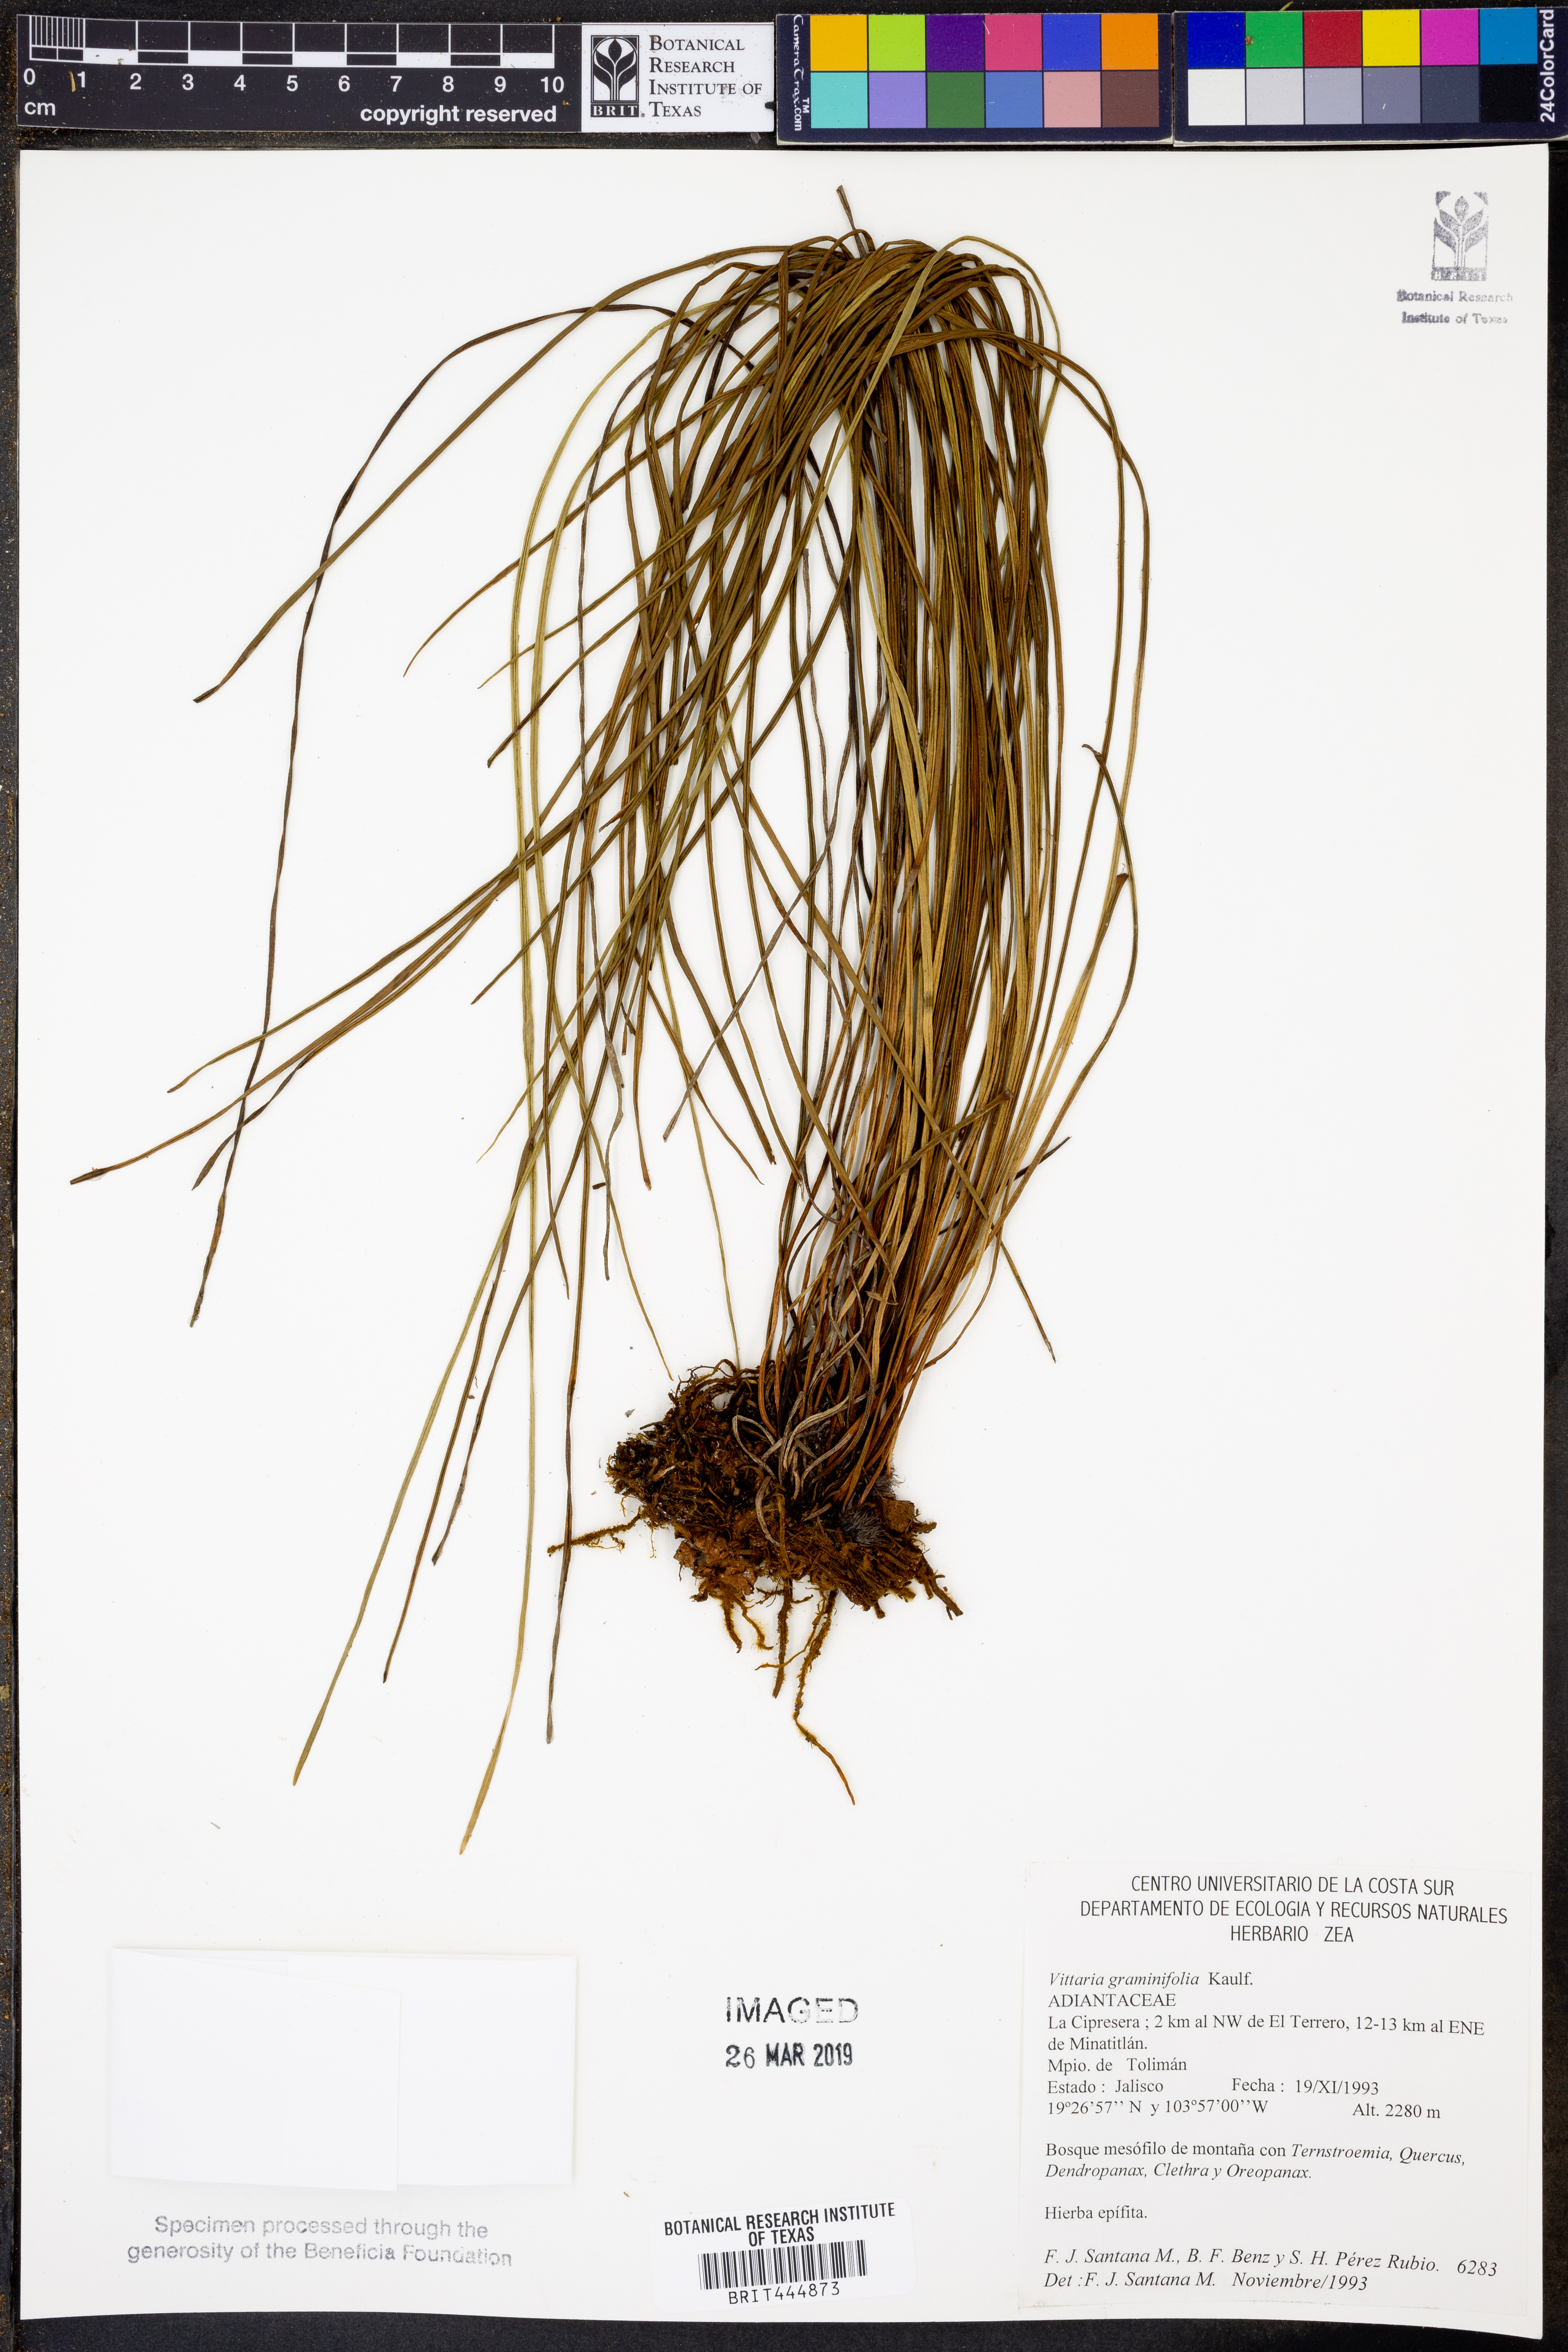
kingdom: Plantae
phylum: Tracheophyta
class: Polypodiopsida
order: Polypodiales
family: Pteridaceae
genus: Vittaria
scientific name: Vittaria graminifolia
